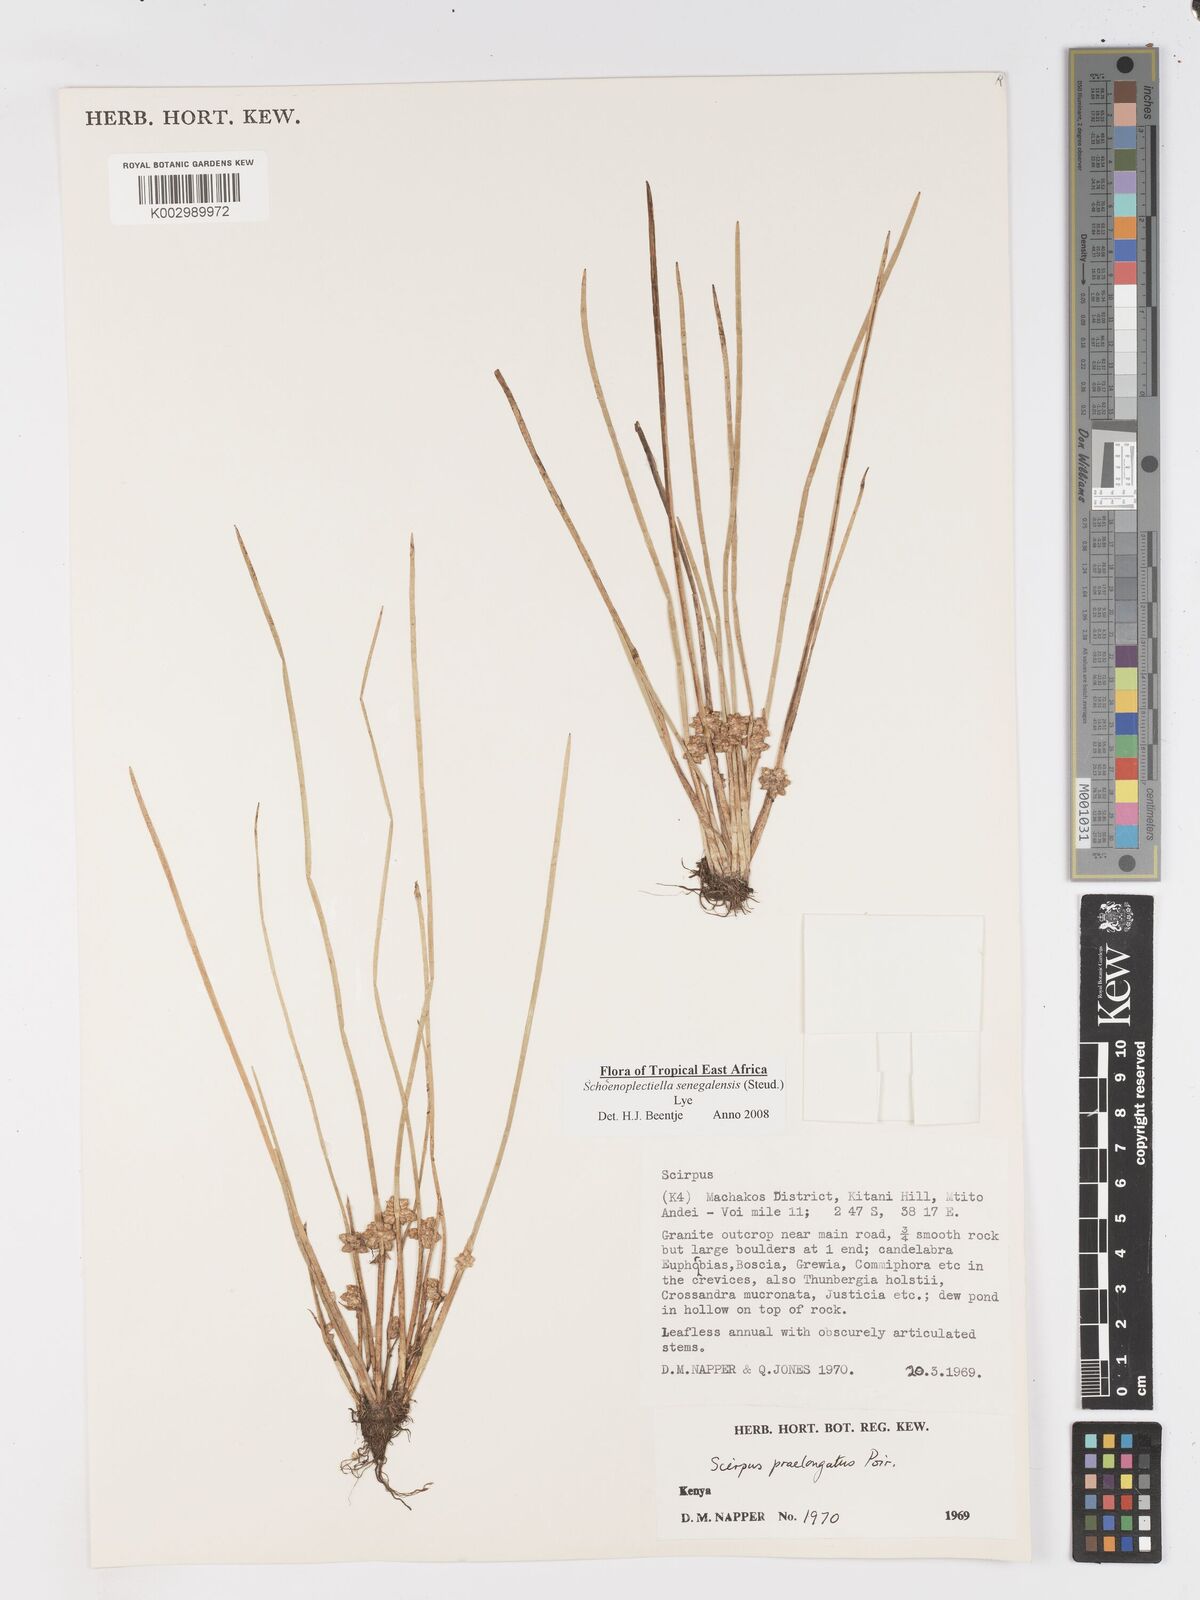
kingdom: Plantae
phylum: Tracheophyta
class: Liliopsida
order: Poales
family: Cyperaceae
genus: Schoenoplectiella
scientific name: Schoenoplectiella senegalensis
